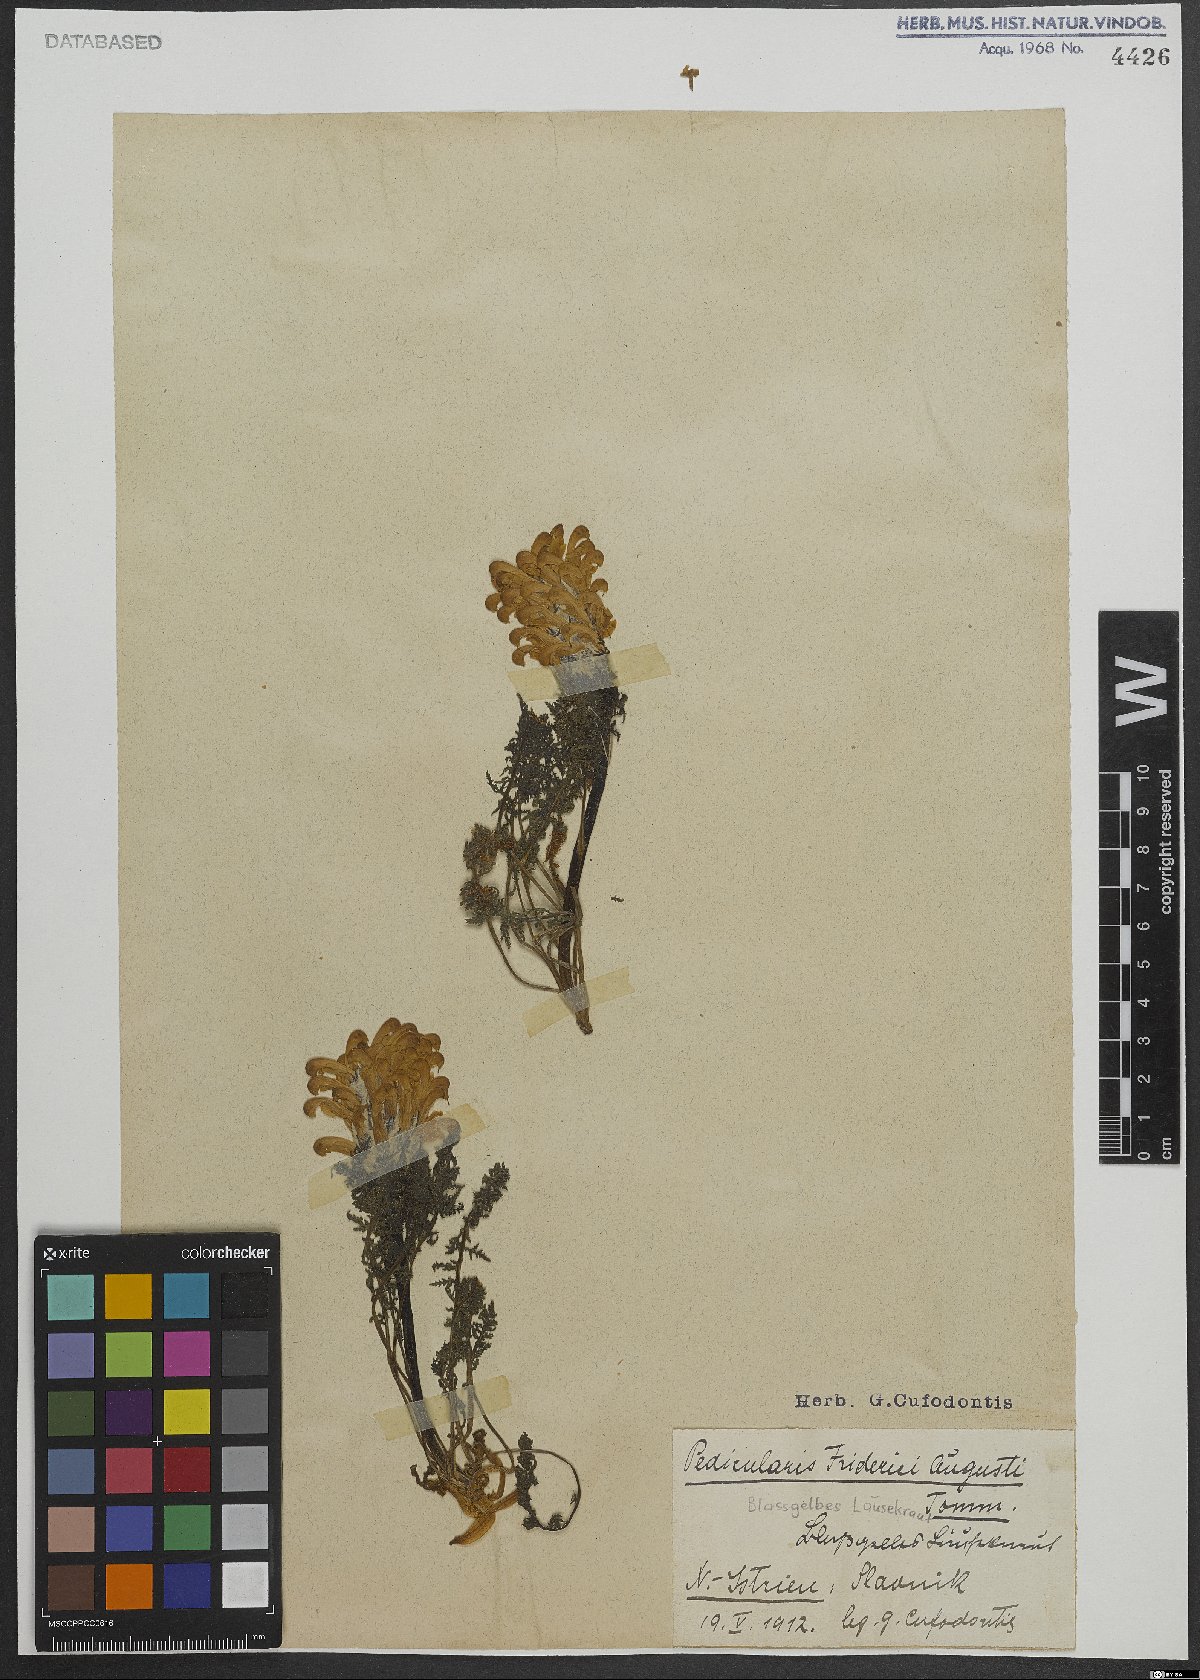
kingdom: Plantae
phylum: Tracheophyta
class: Magnoliopsida
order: Lamiales
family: Orobanchaceae
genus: Pedicularis
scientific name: Pedicularis friderici-augusti
